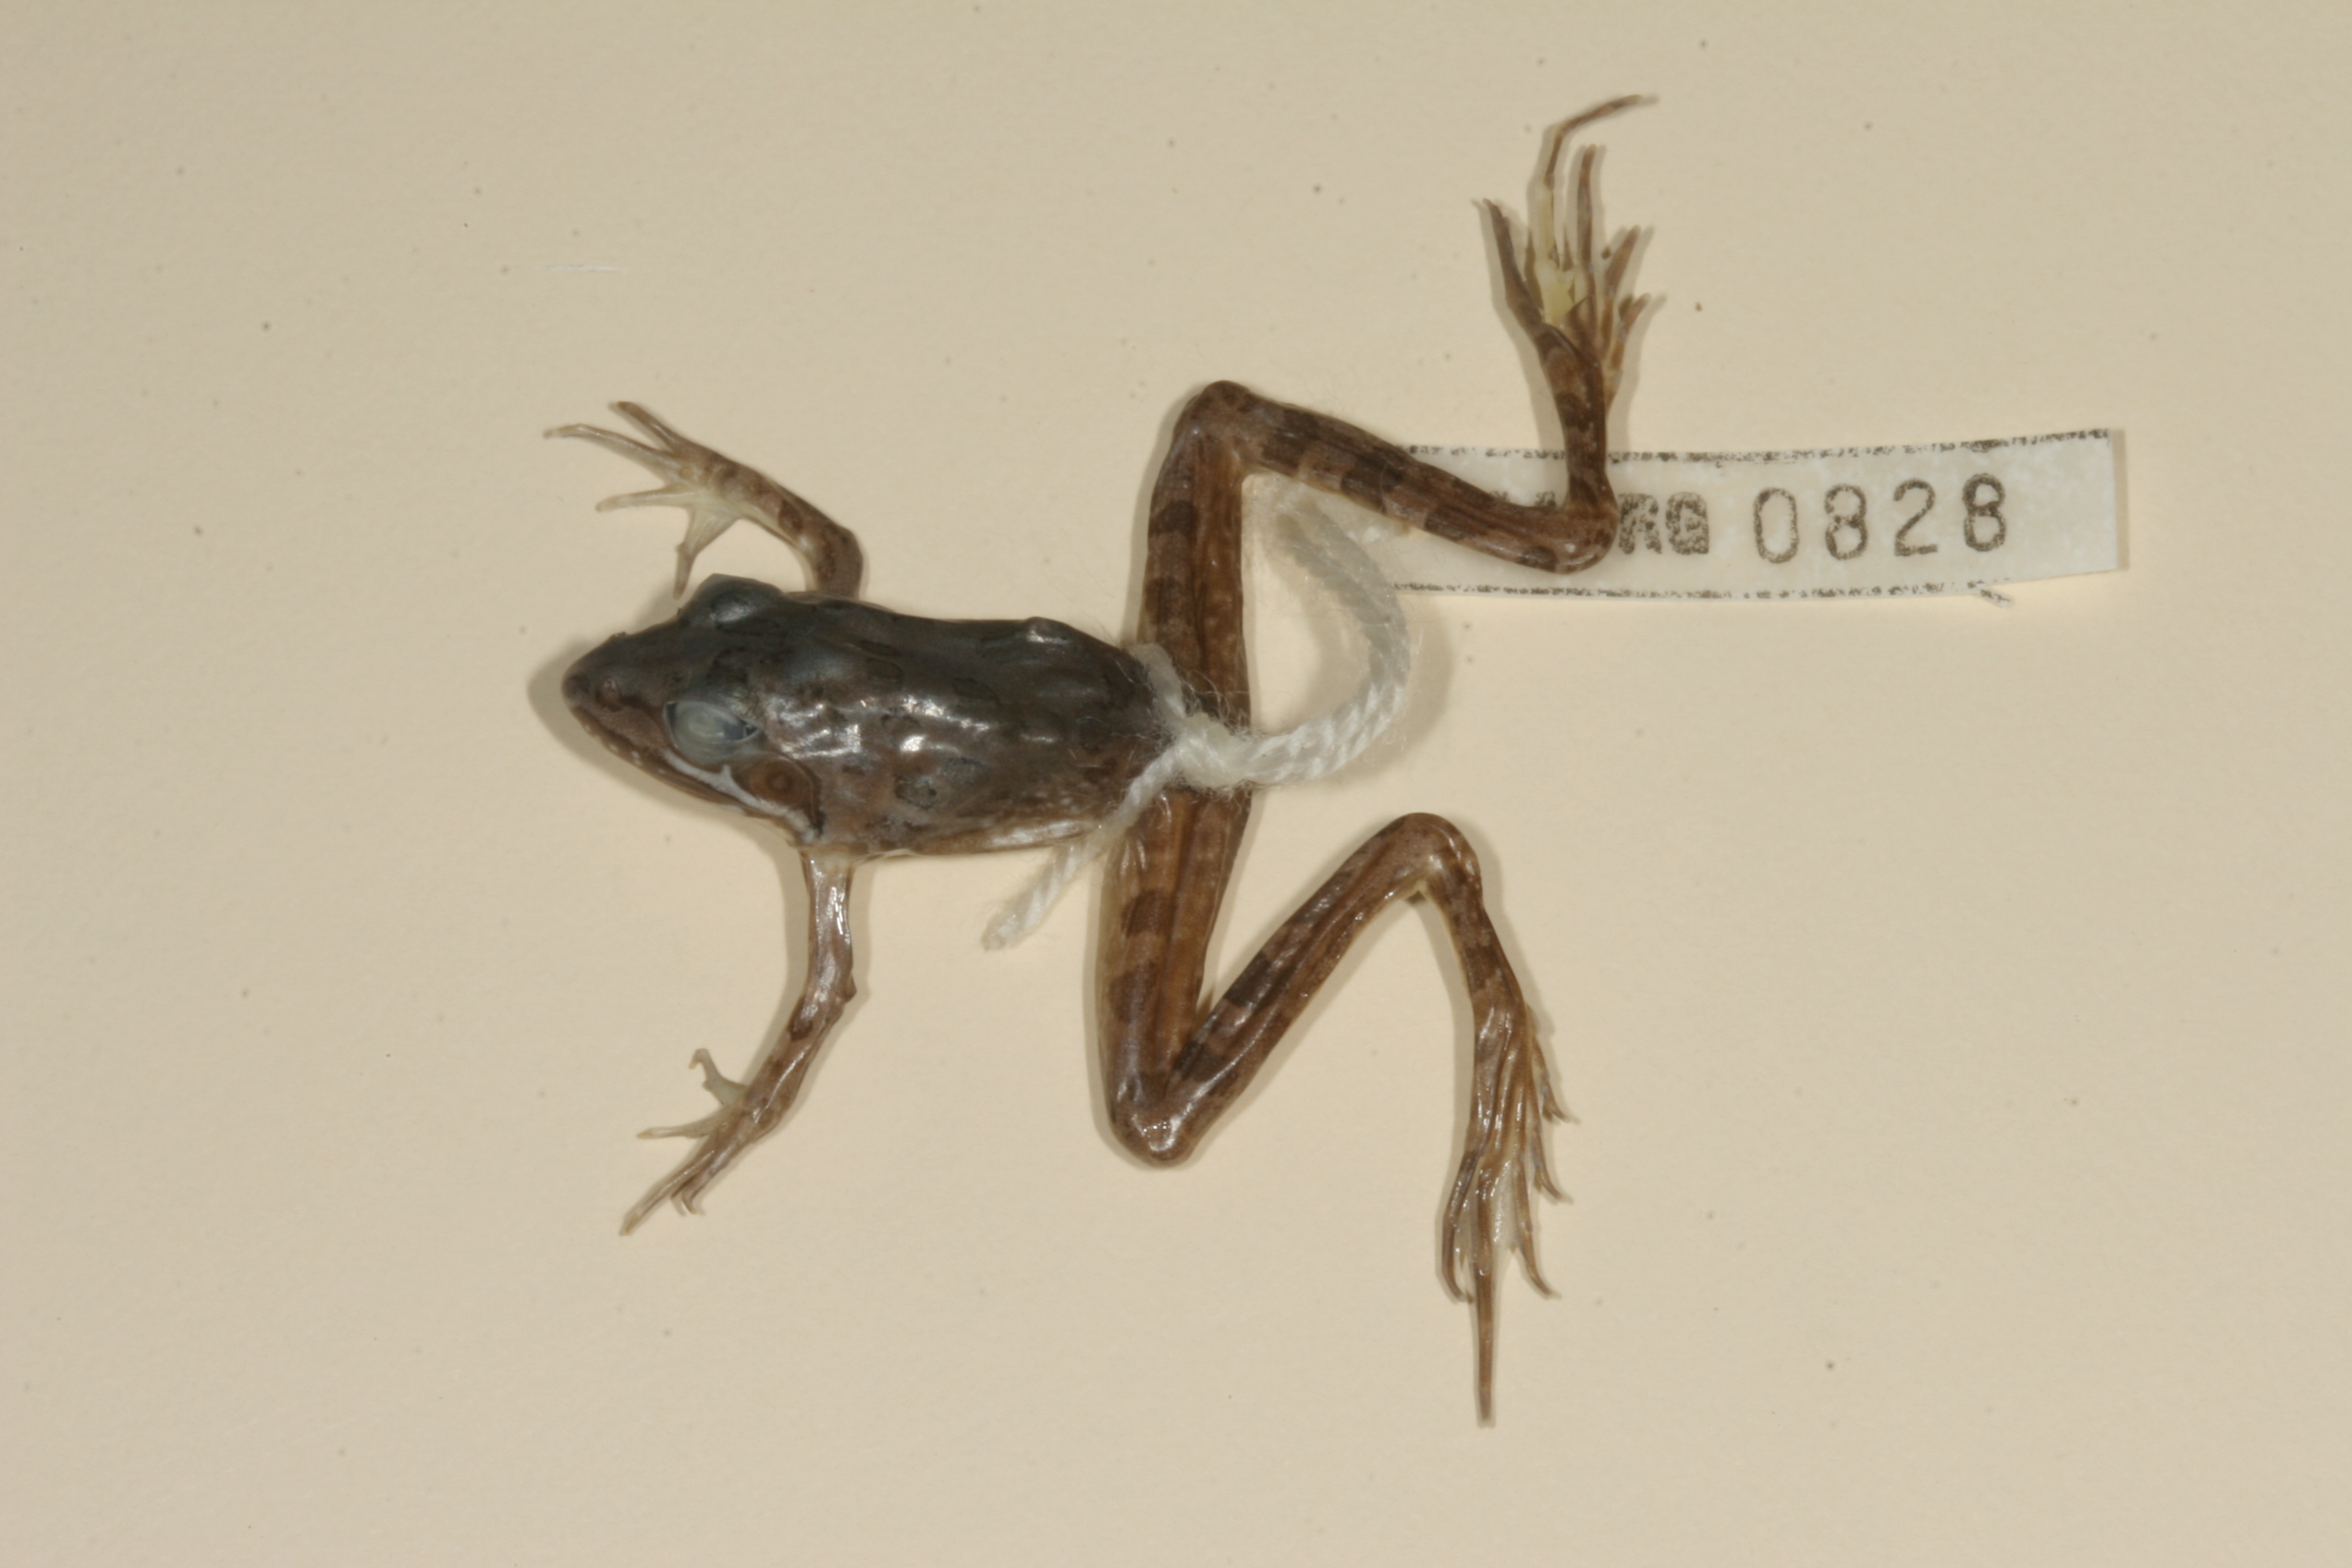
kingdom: Animalia
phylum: Chordata
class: Amphibia
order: Anura
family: Pyxicephalidae
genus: Amietia
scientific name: Amietia angolensis
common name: Dusky-throated frog
